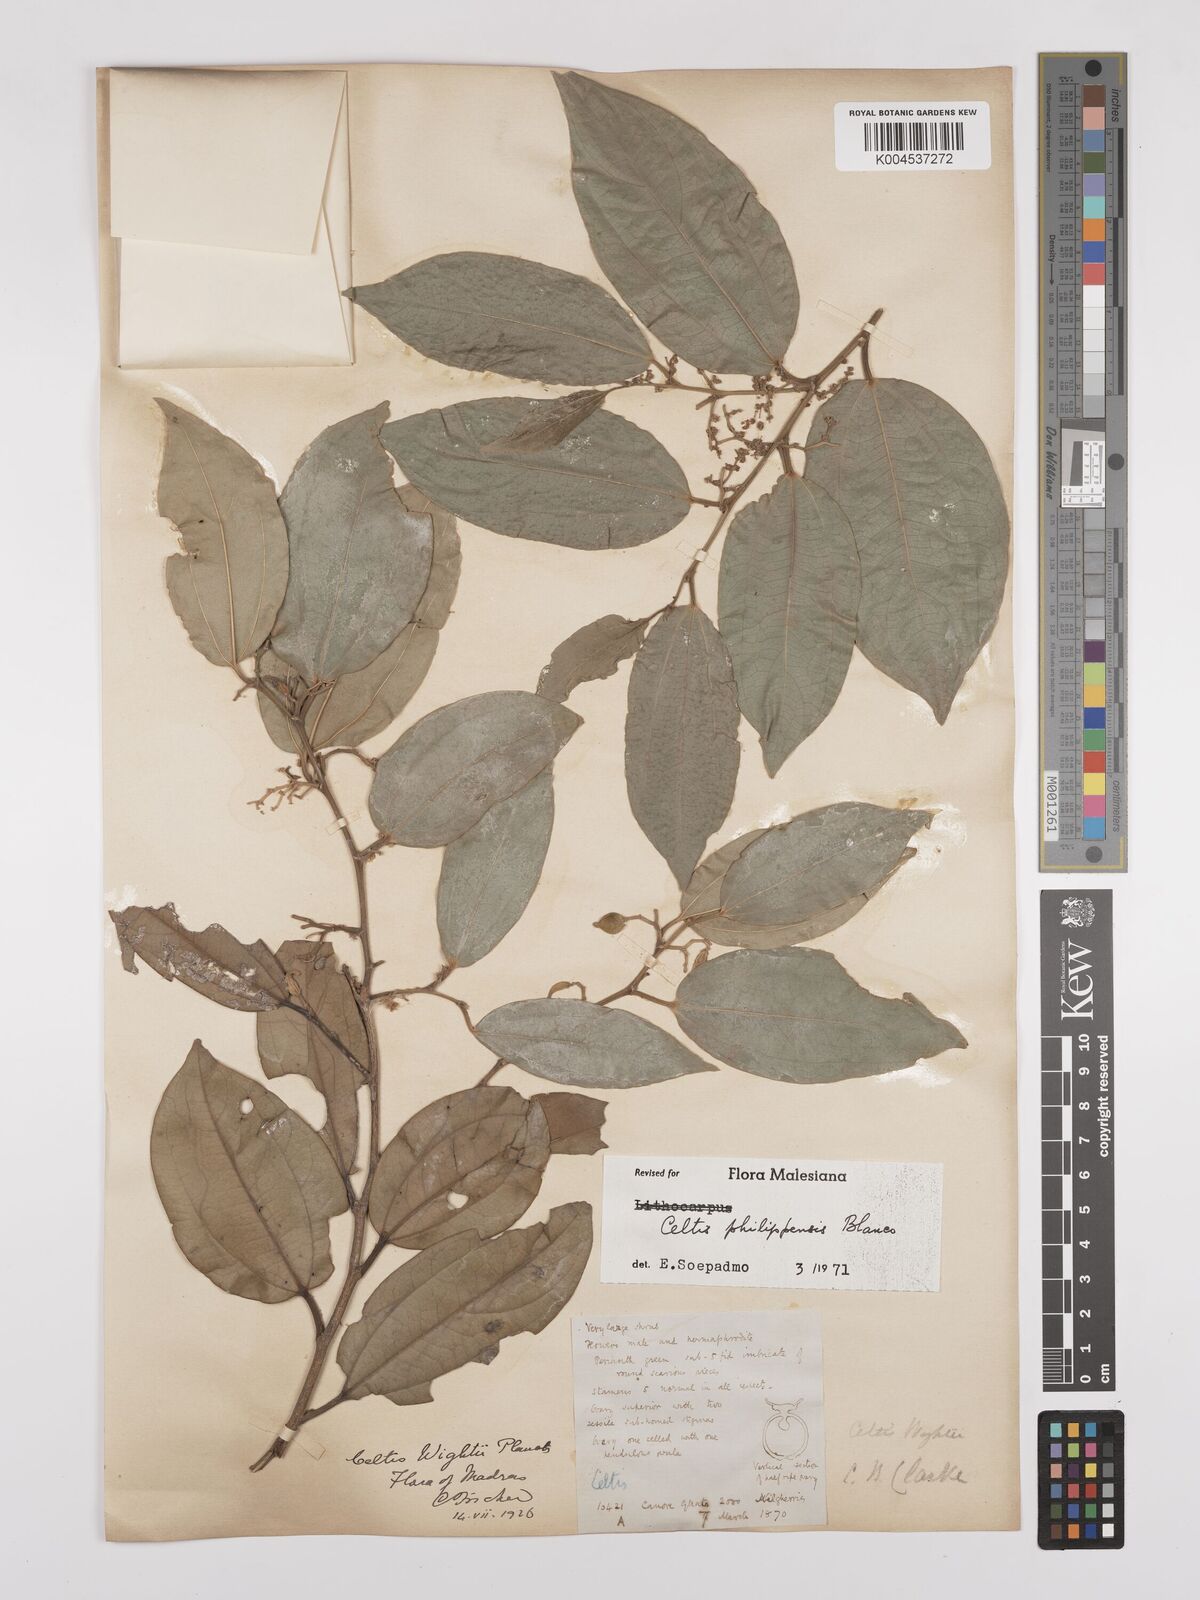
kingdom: Plantae
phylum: Tracheophyta
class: Magnoliopsida
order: Rosales
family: Cannabaceae
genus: Celtis
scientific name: Celtis philippensis
